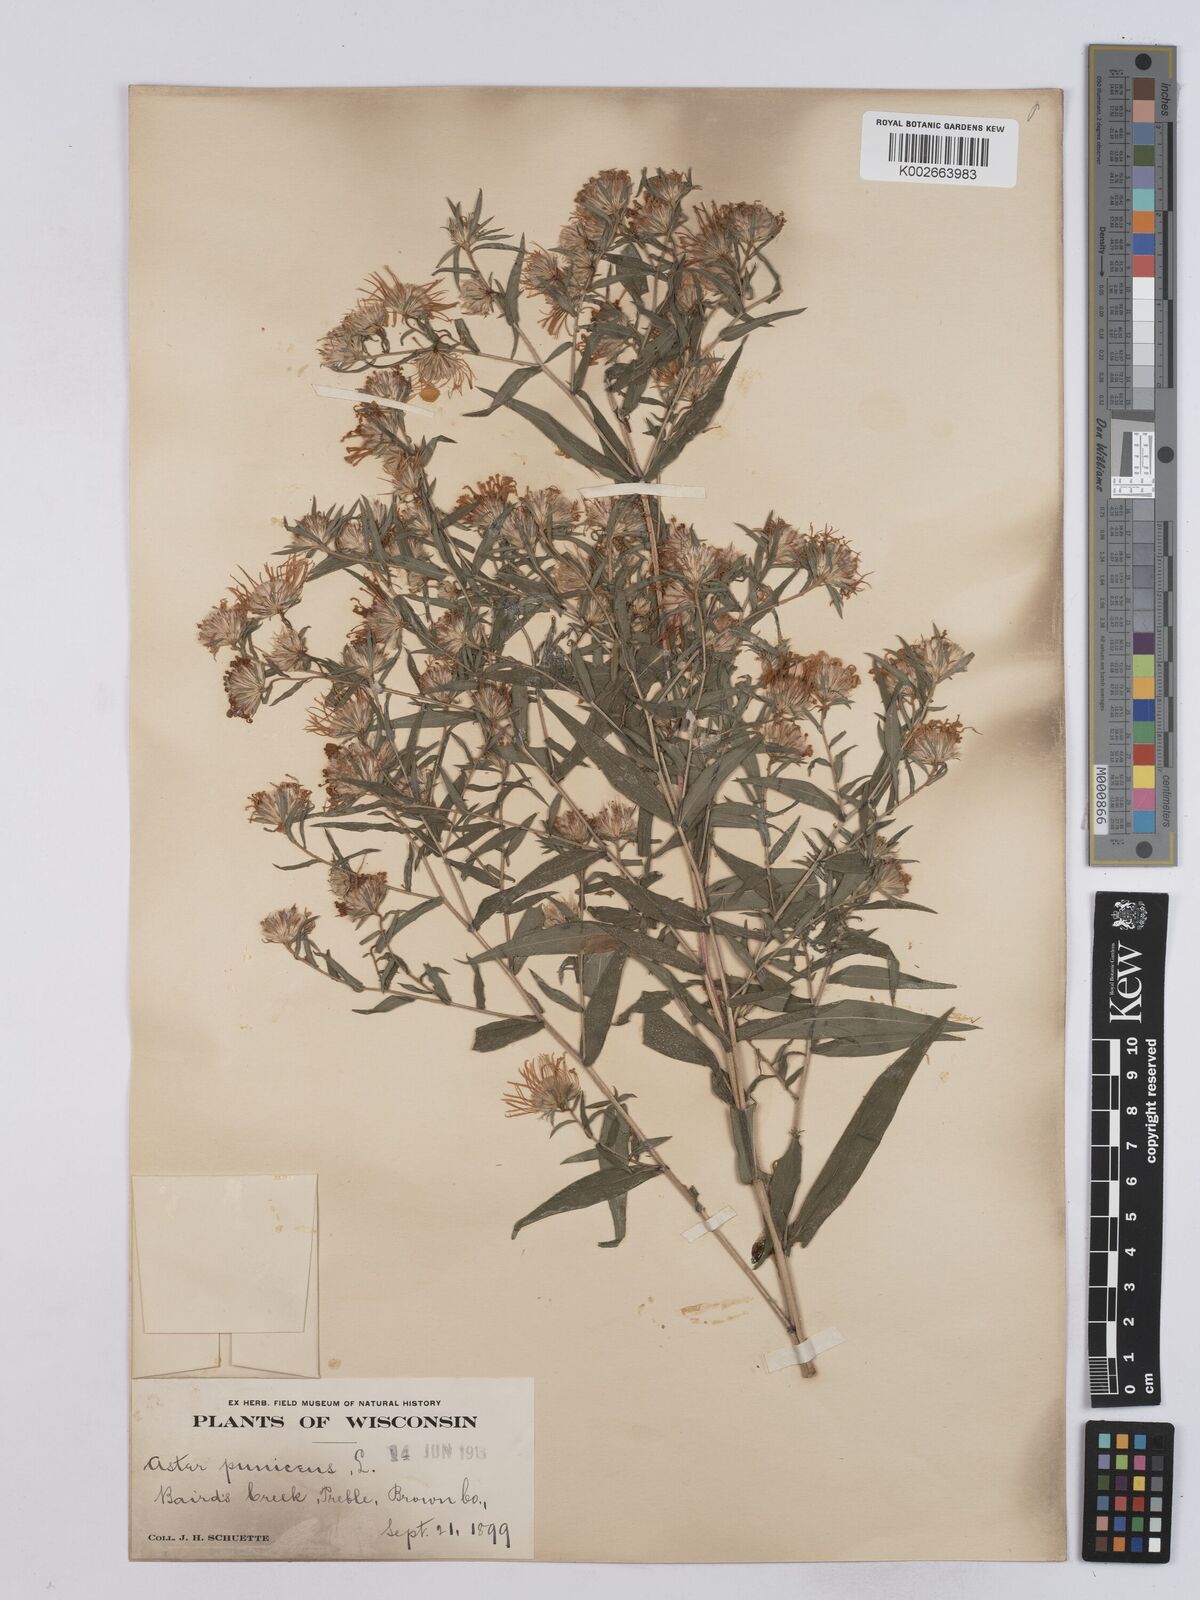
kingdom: Plantae
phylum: Tracheophyta
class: Magnoliopsida
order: Asterales
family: Asteraceae
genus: Symphyotrichum
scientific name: Symphyotrichum puniceum
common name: Bog aster
